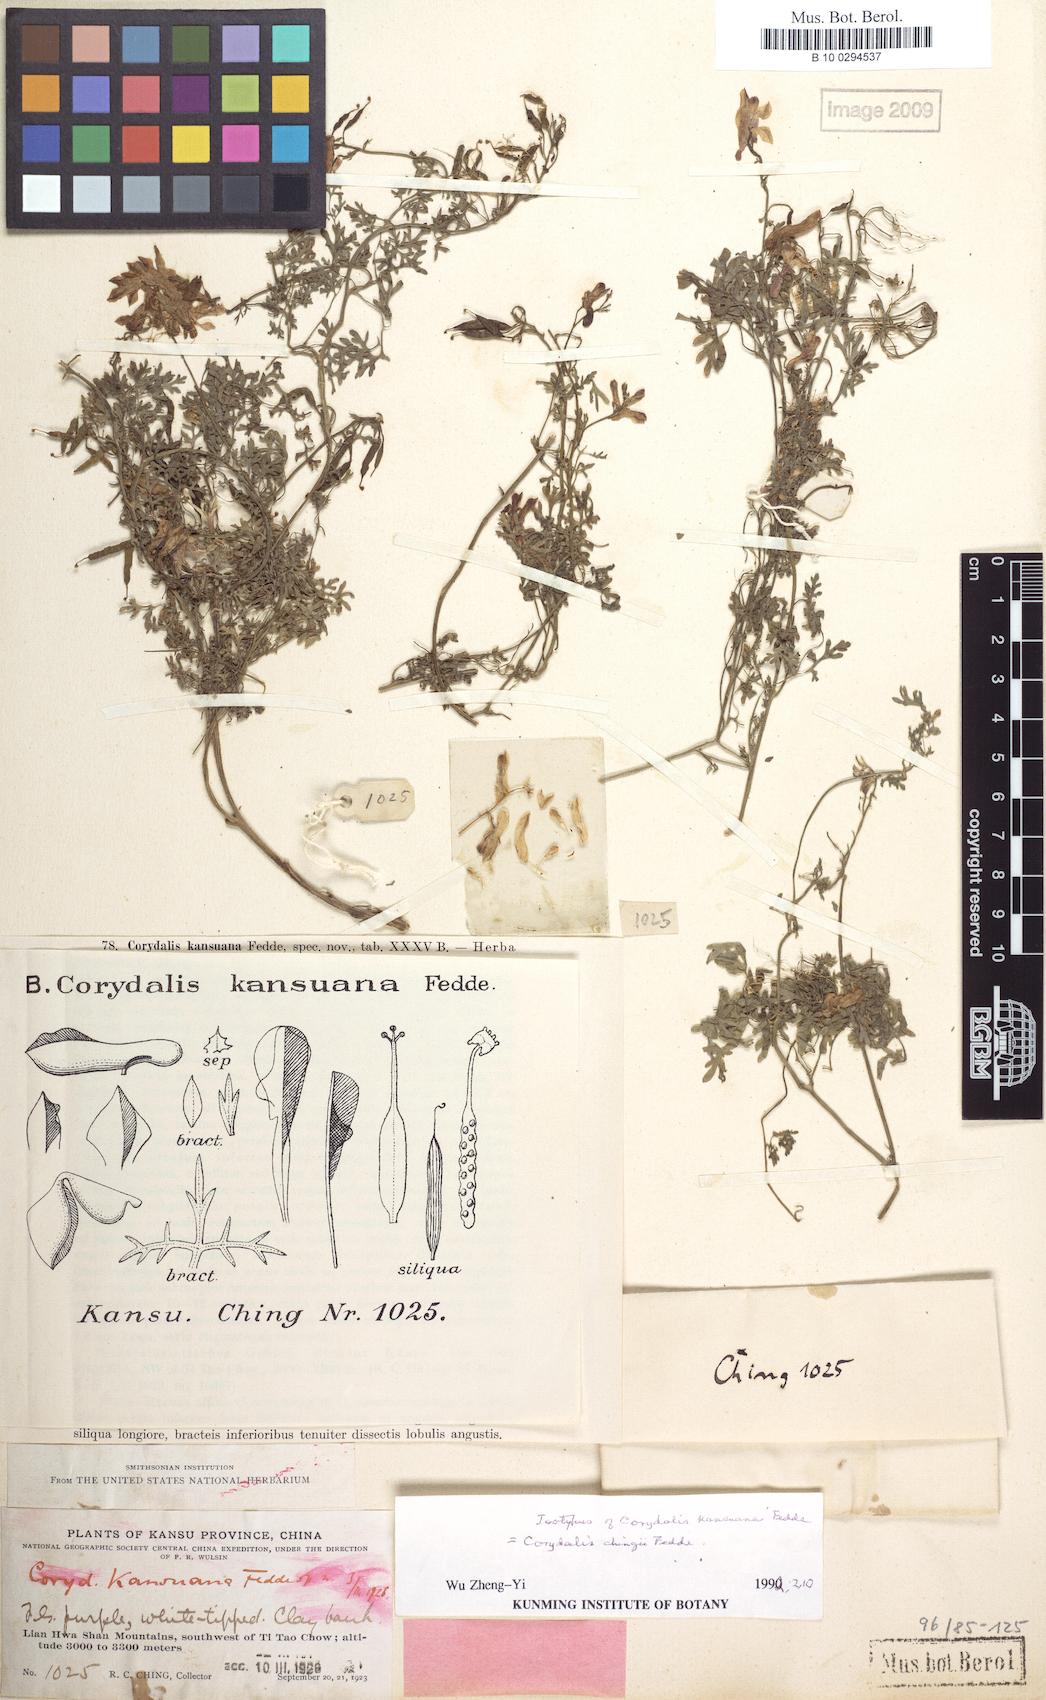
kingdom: Plantae
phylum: Tracheophyta
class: Magnoliopsida
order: Ranunculales
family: Papaveraceae
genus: Corydalis
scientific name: Corydalis chingii
